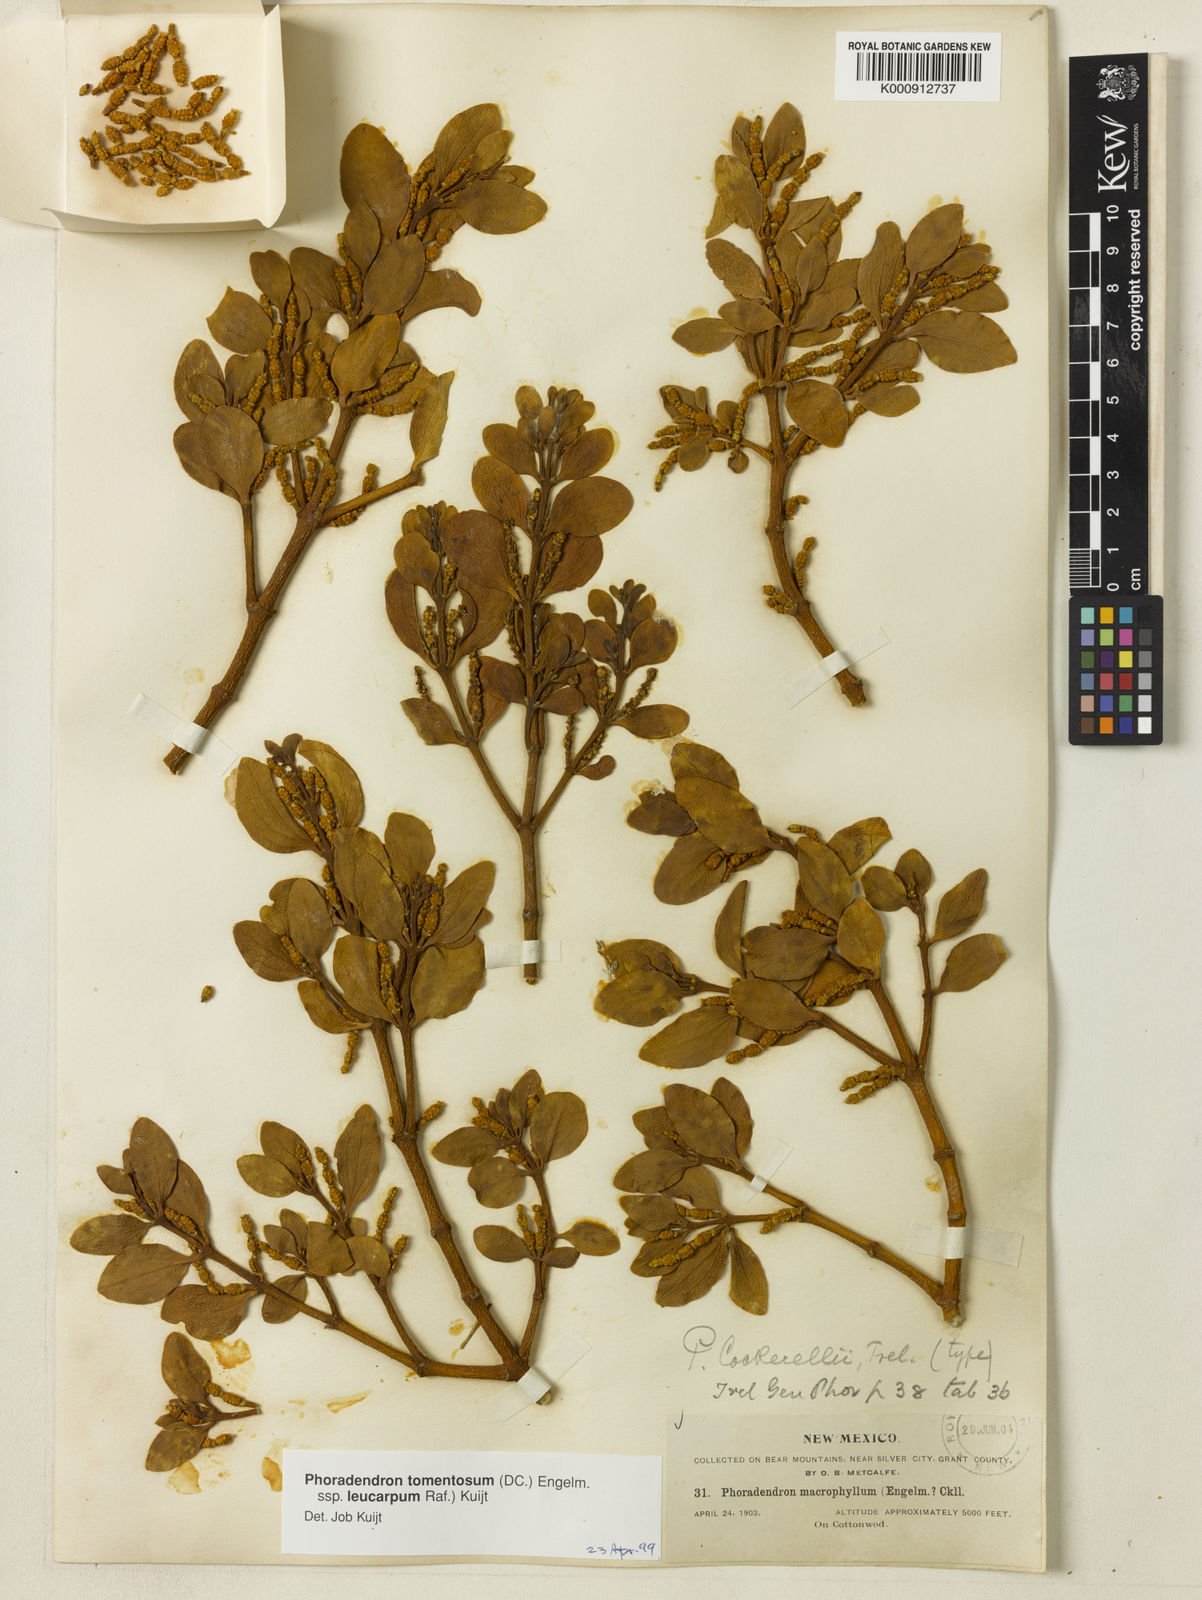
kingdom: Plantae
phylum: Tracheophyta
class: Magnoliopsida
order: Santalales
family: Viscaceae
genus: Phoradendron
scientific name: Phoradendron
